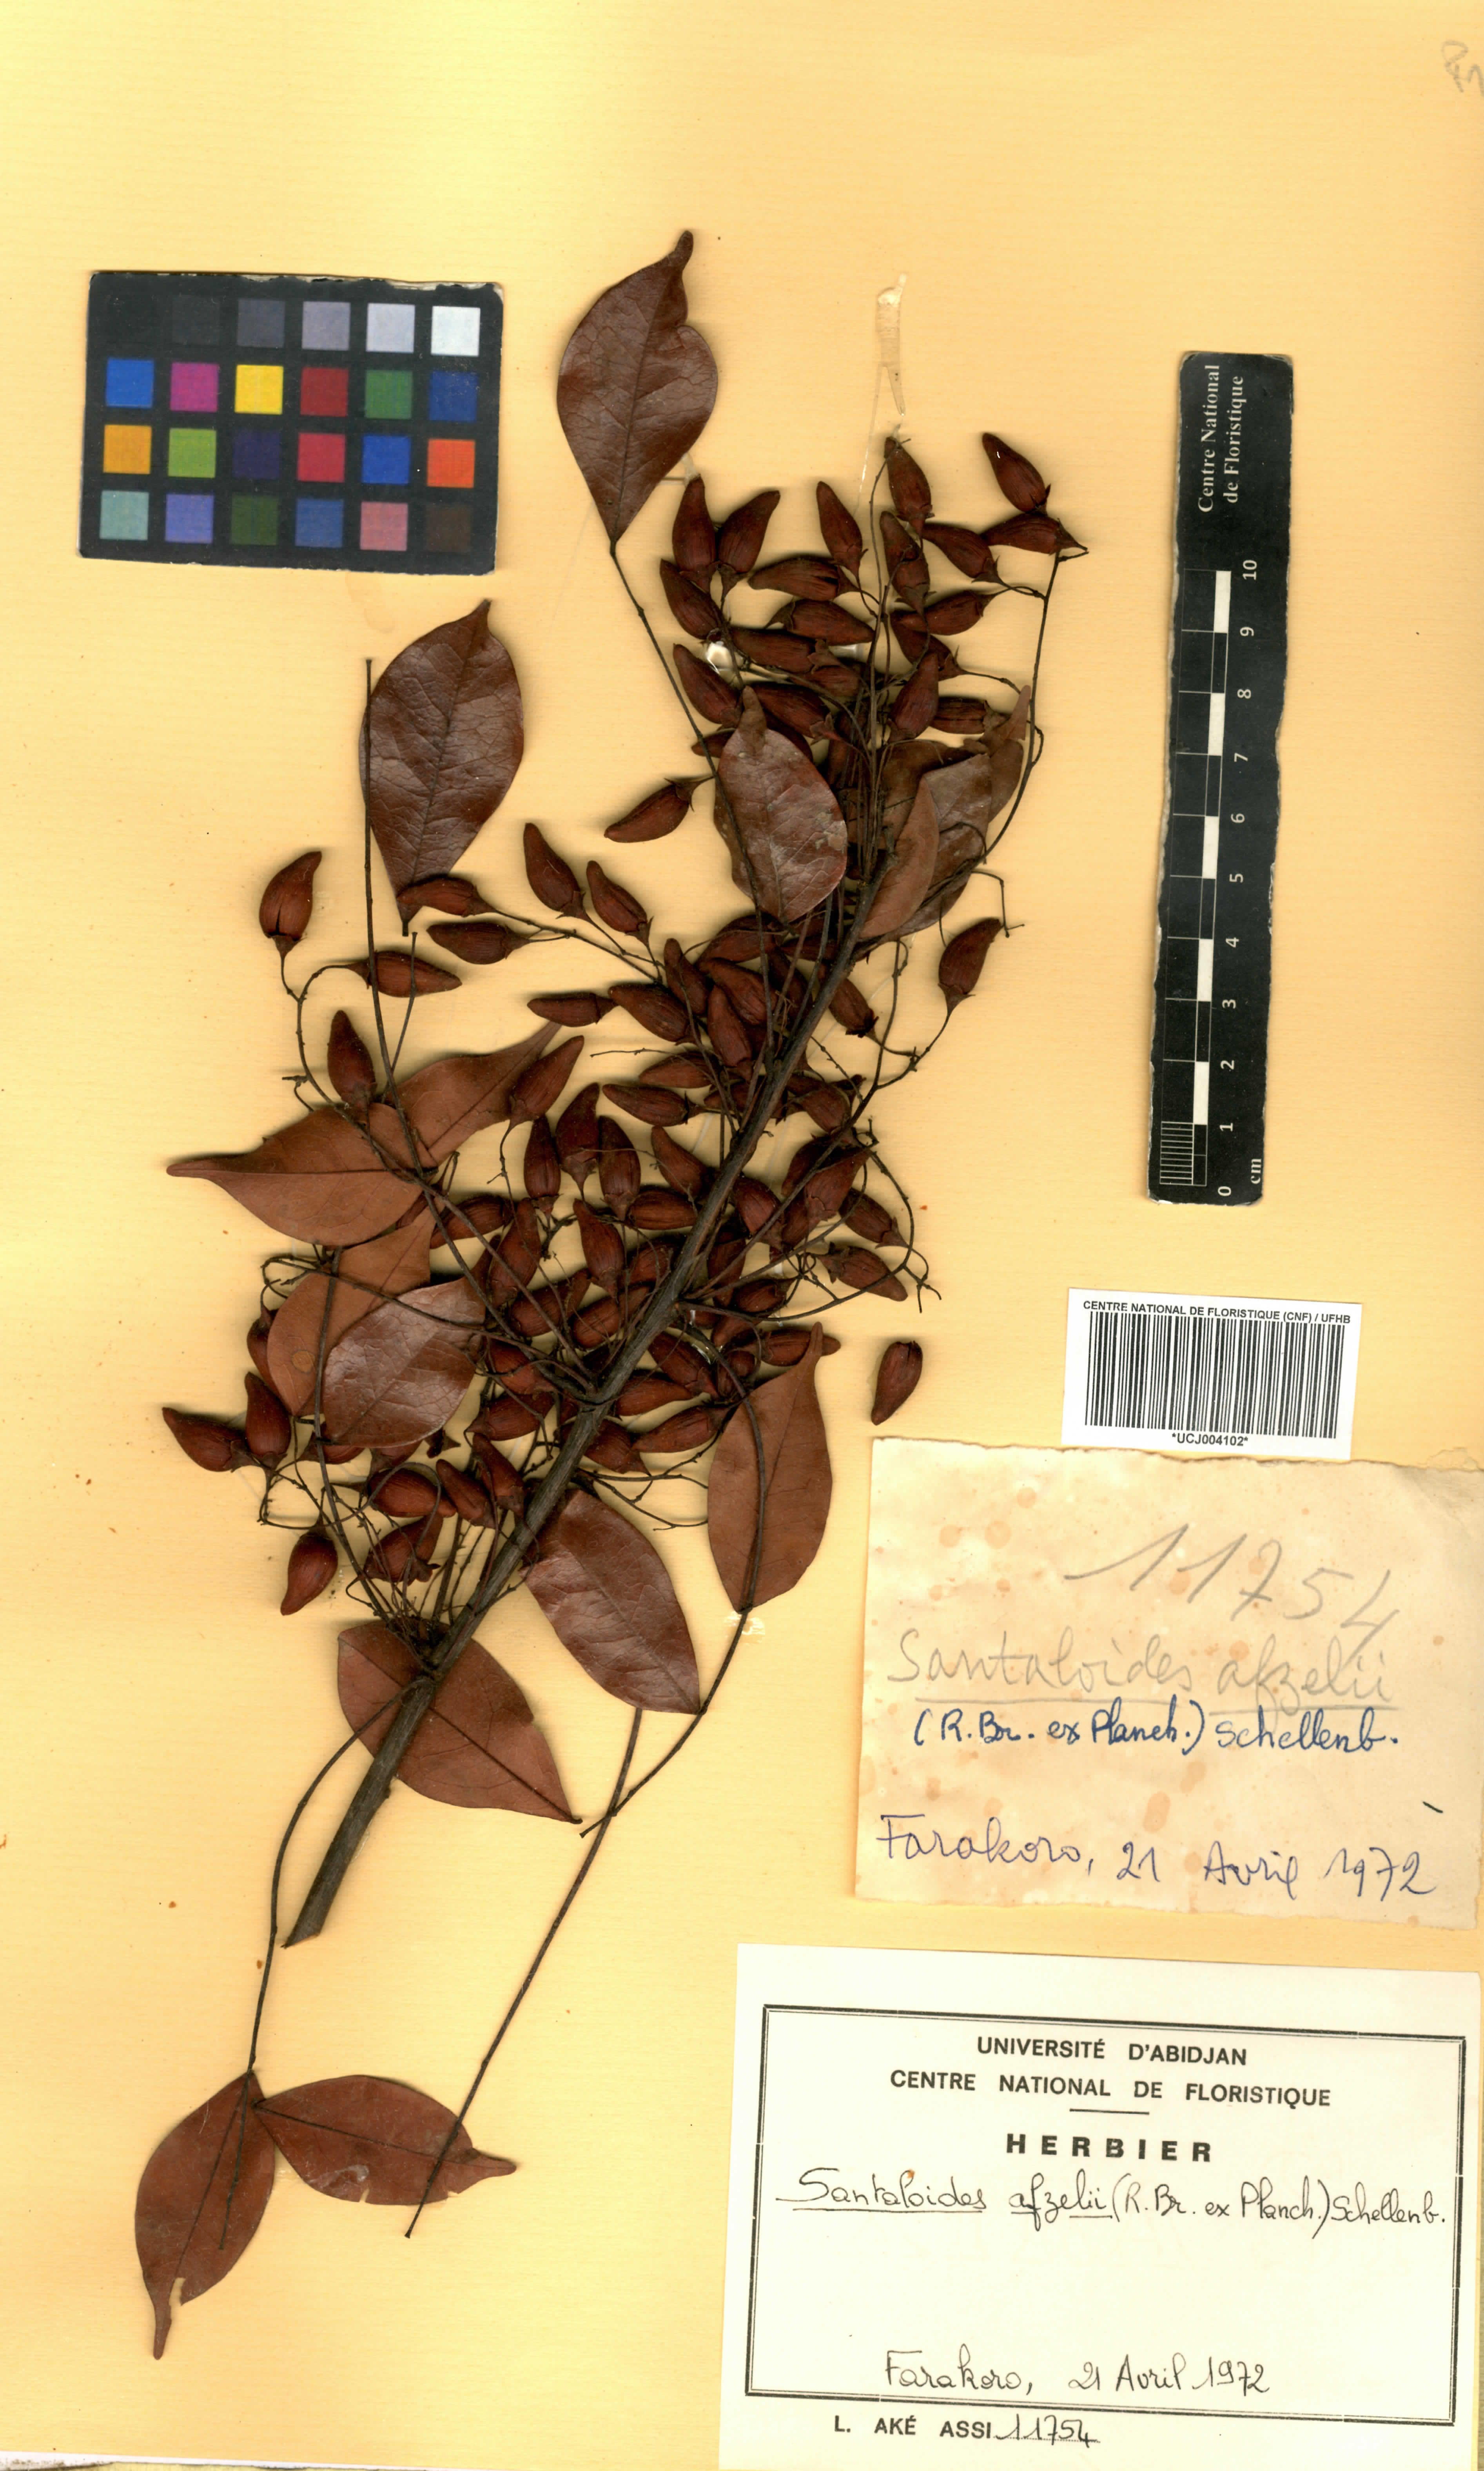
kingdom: Plantae
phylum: Tracheophyta
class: Magnoliopsida
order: Oxalidales
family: Connaraceae
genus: Rourea
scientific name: Rourea minor
